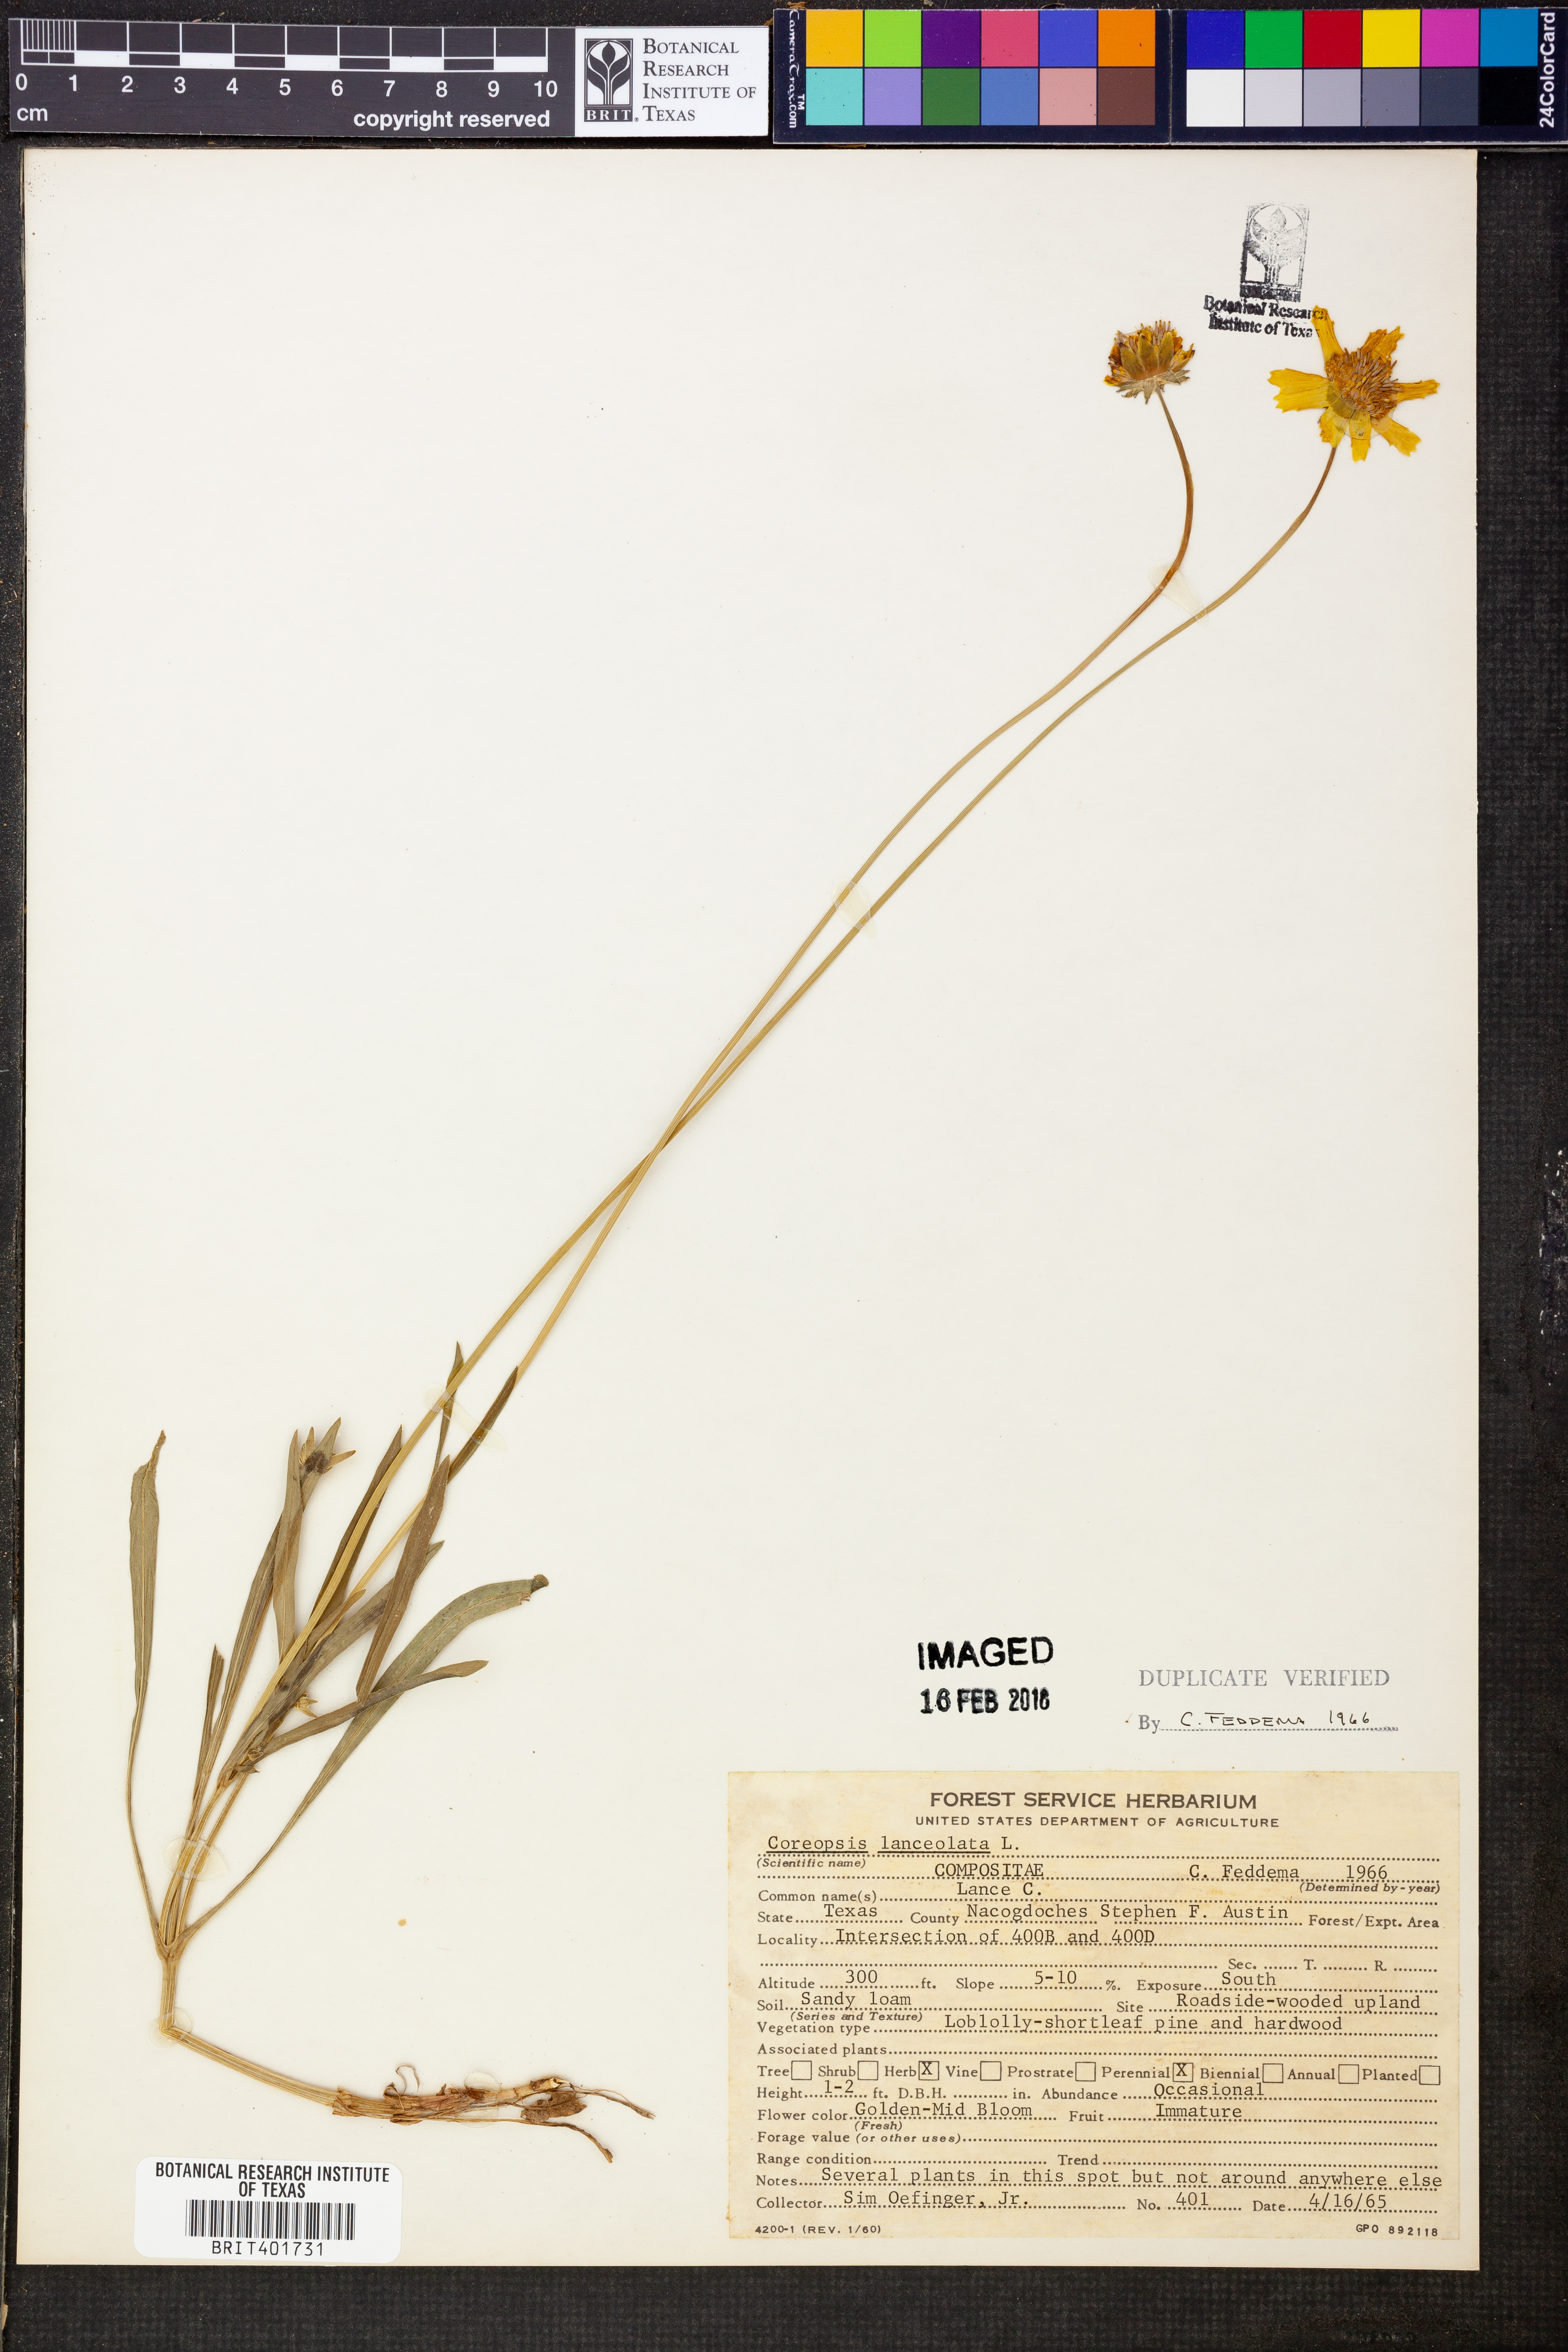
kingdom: Plantae
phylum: Tracheophyta
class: Magnoliopsida
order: Asterales
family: Asteraceae
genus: Coreopsis
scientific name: Coreopsis lanceolata
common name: Garden coreopsis
